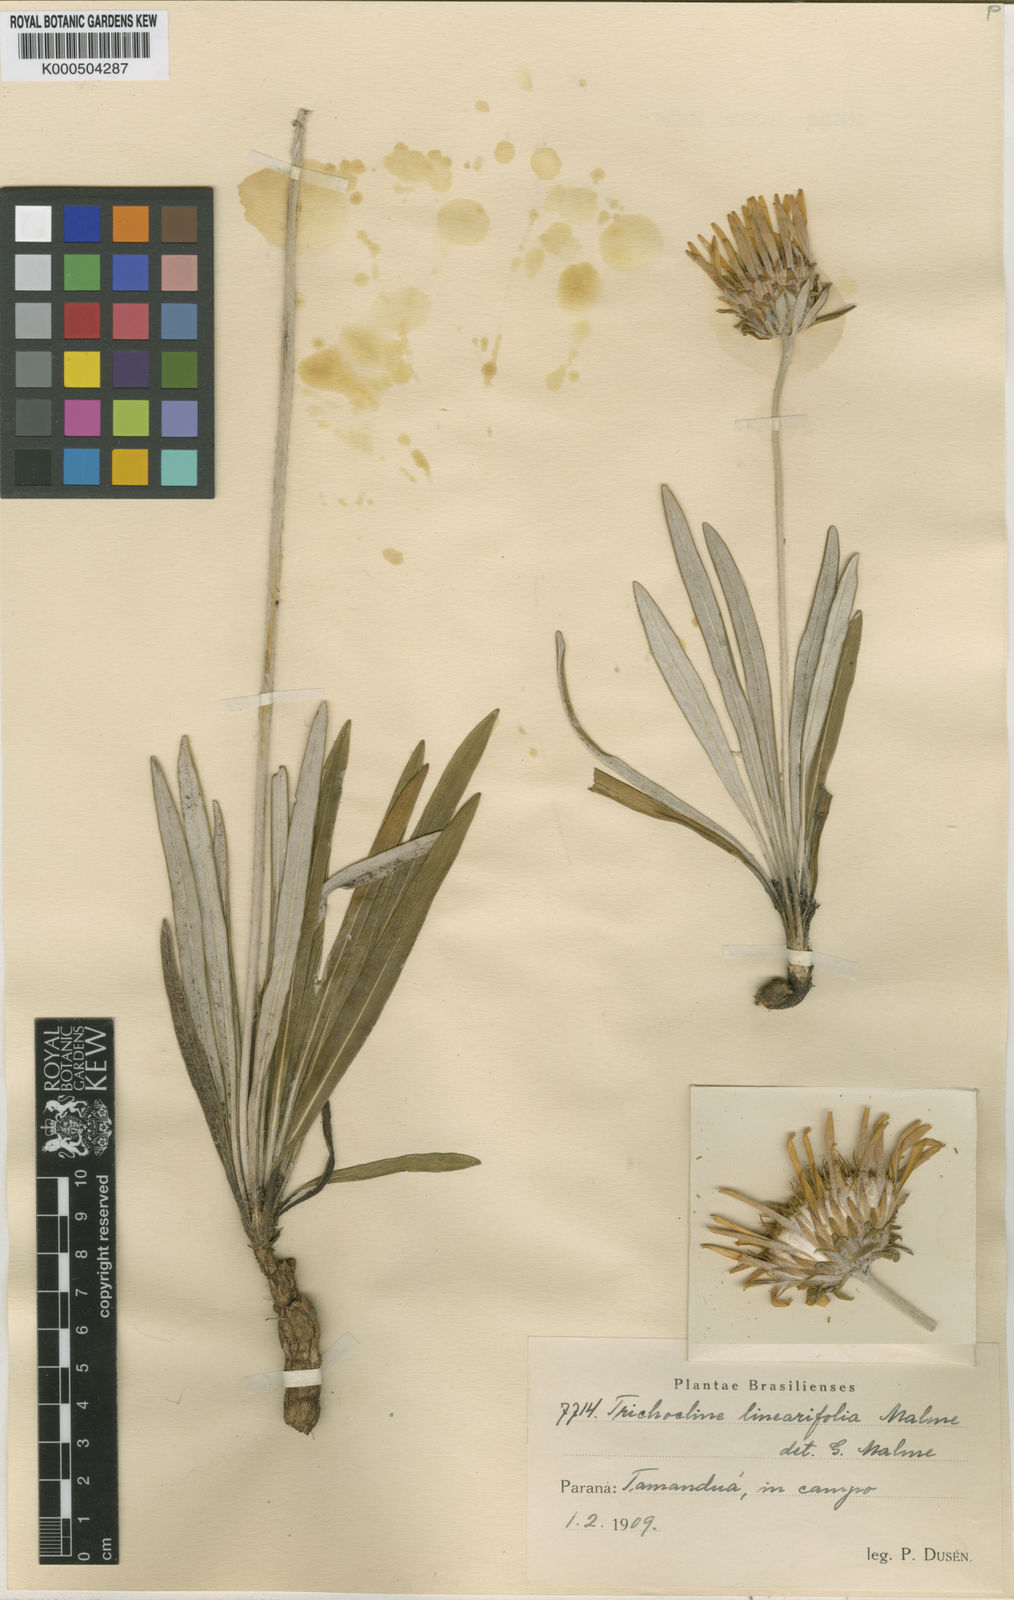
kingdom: Plantae
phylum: Tracheophyta
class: Magnoliopsida
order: Asterales
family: Asteraceae
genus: Trichocline
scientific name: Trichocline linearifolia
